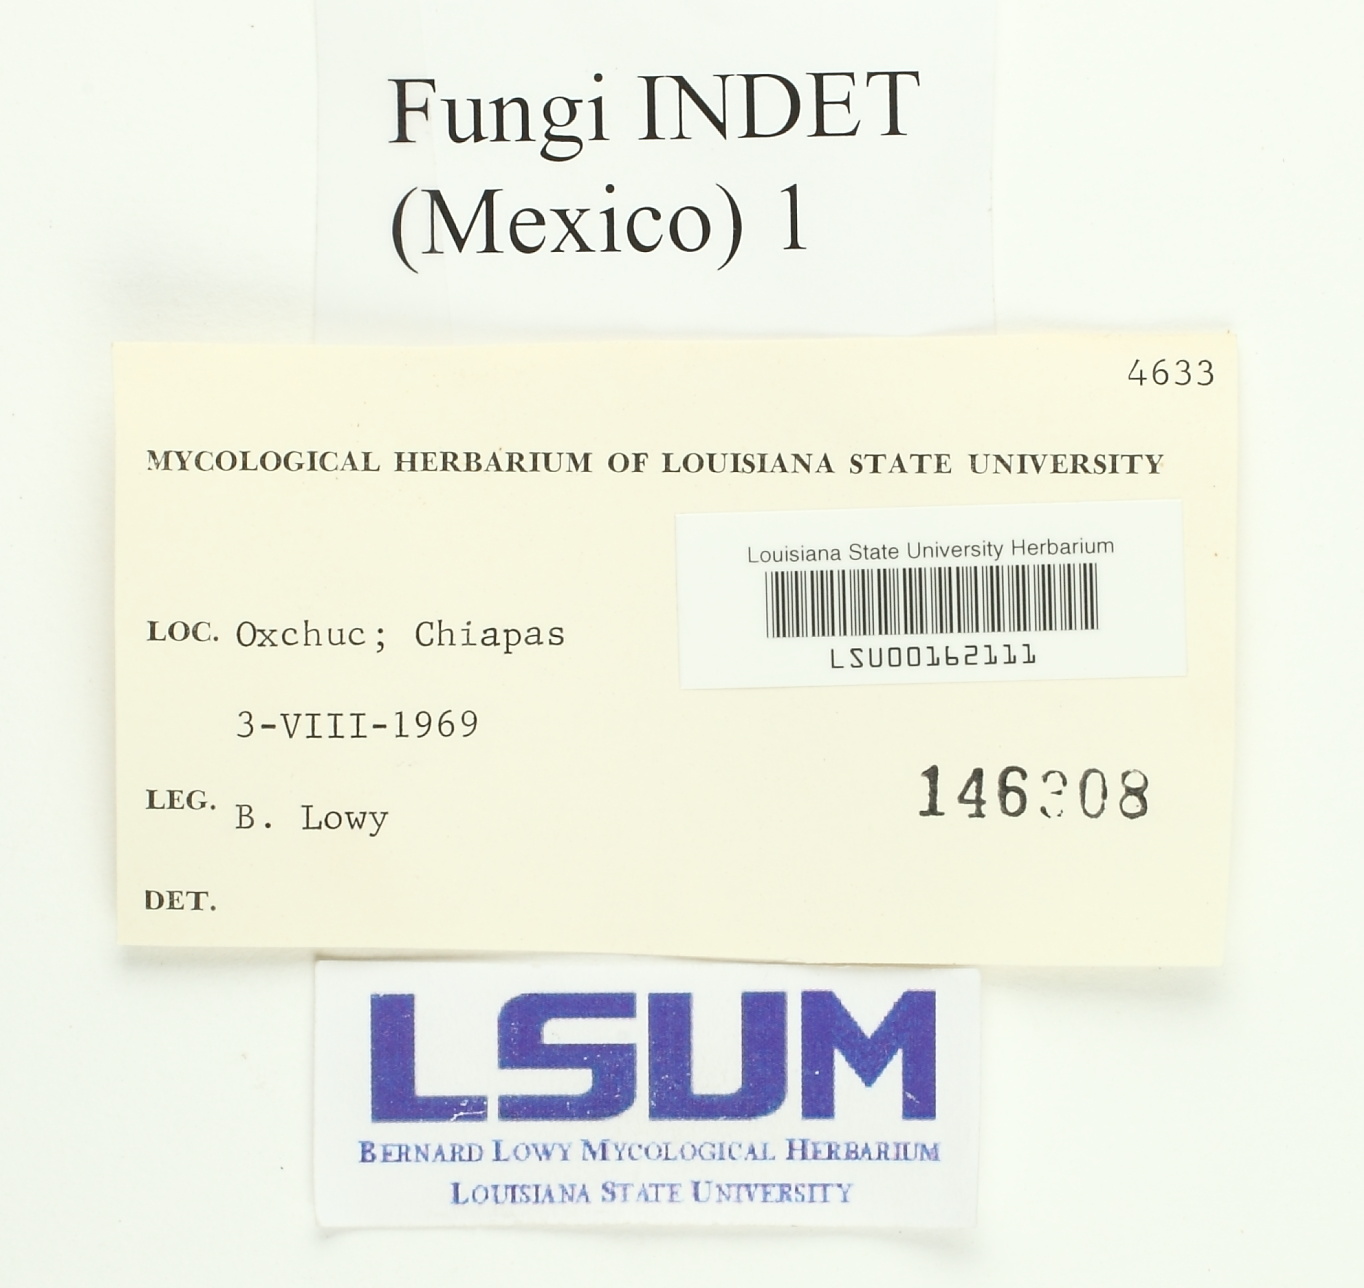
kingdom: Fungi
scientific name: Fungi
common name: Fungi
